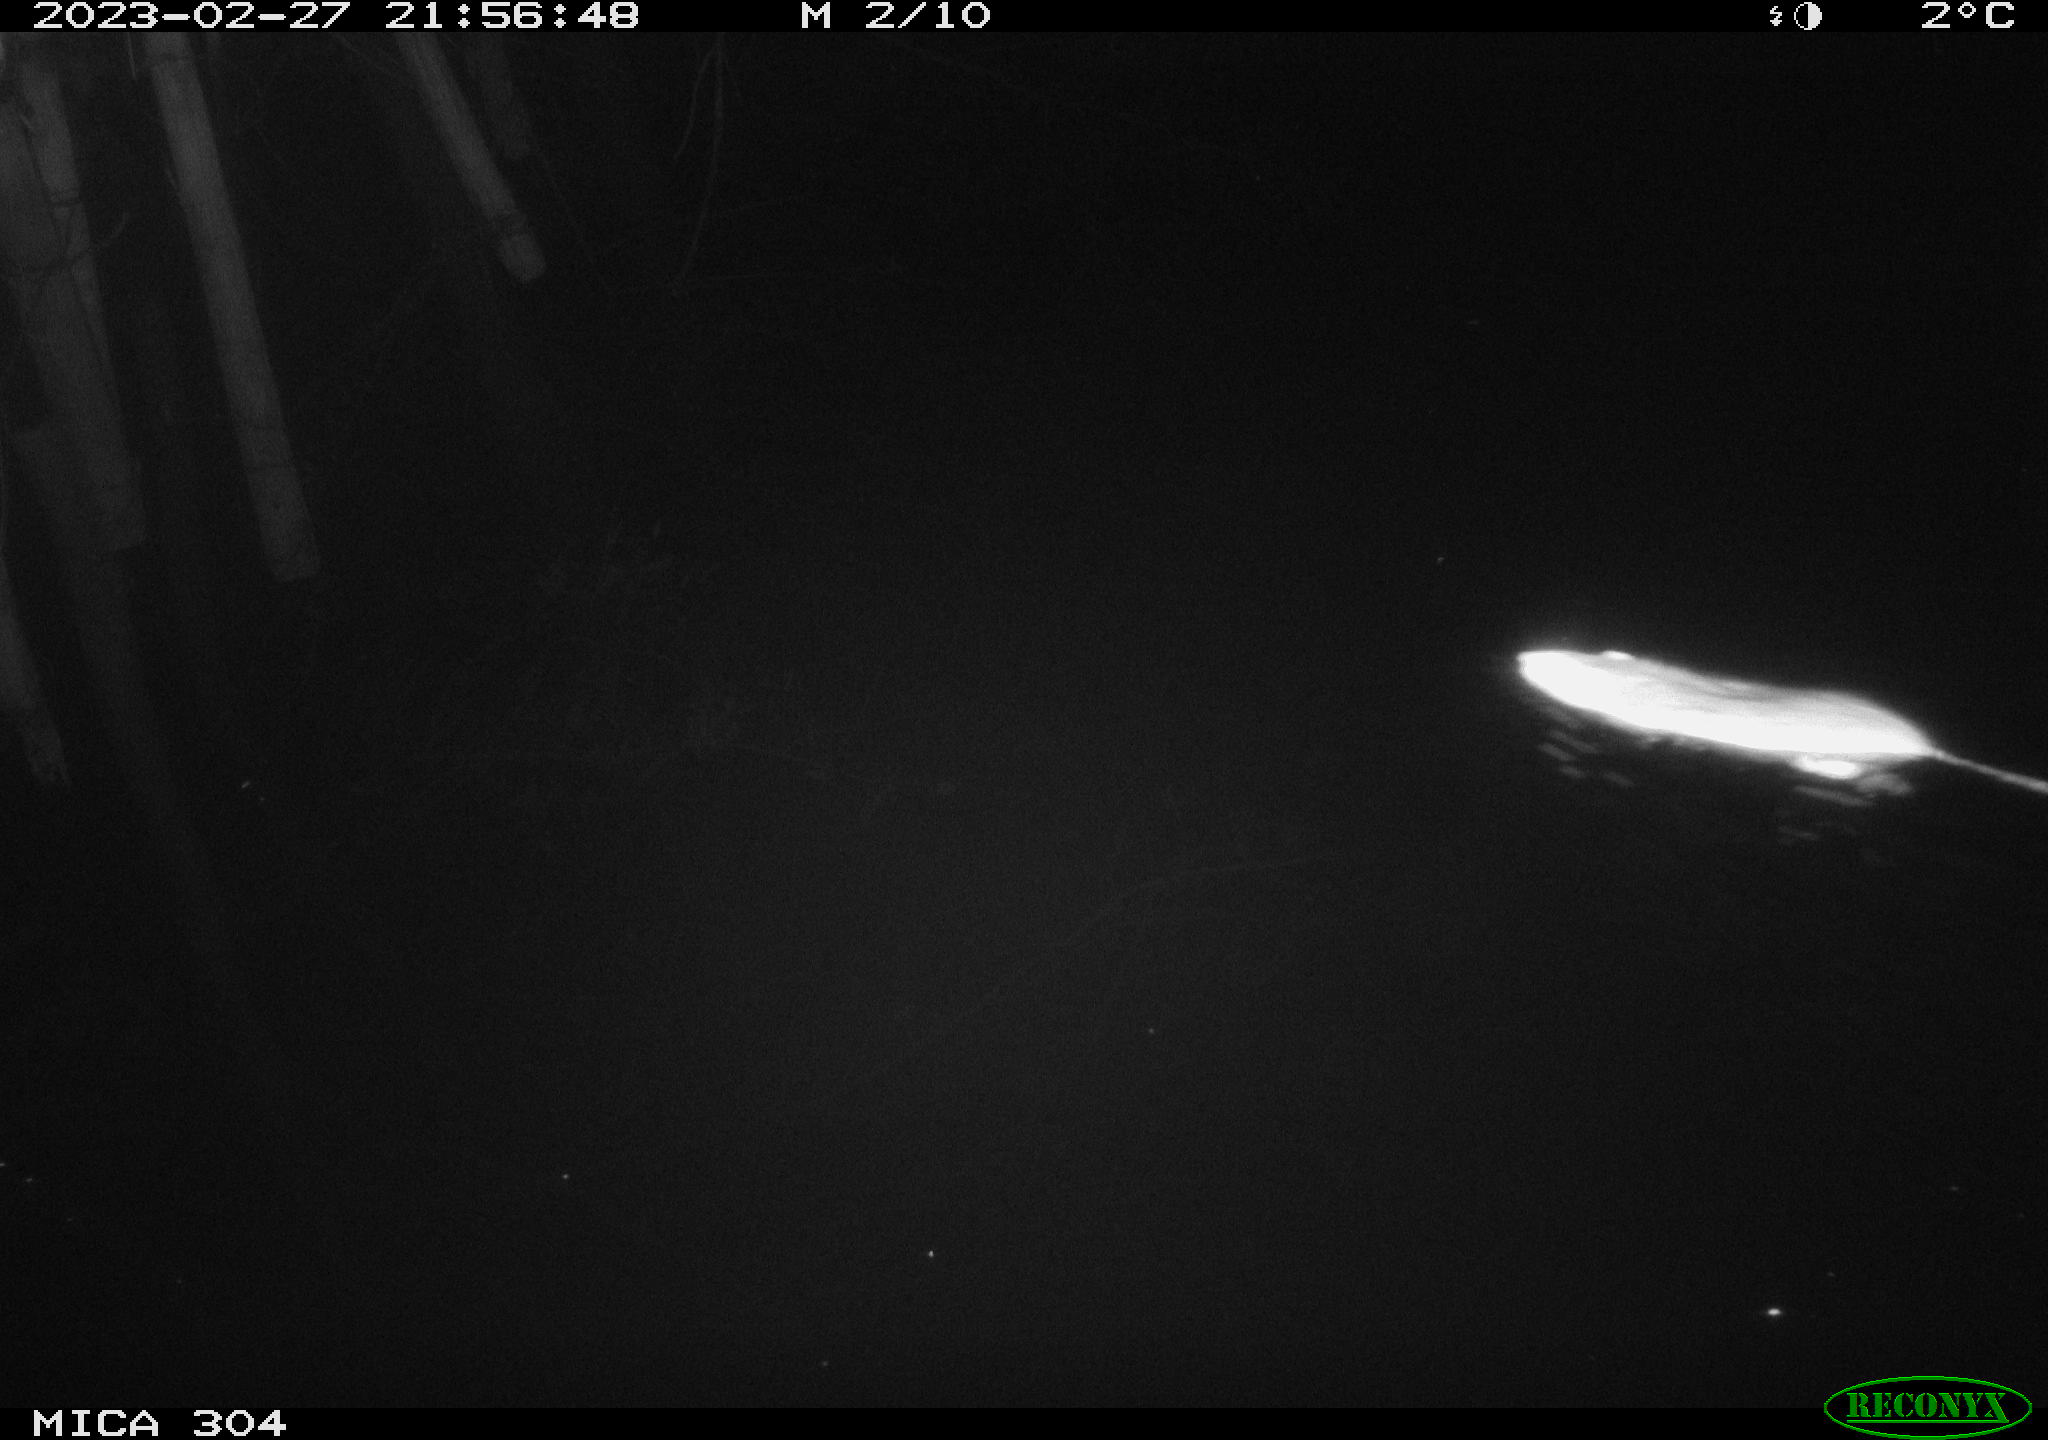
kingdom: Animalia
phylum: Chordata
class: Mammalia
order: Rodentia
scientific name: Rodentia
